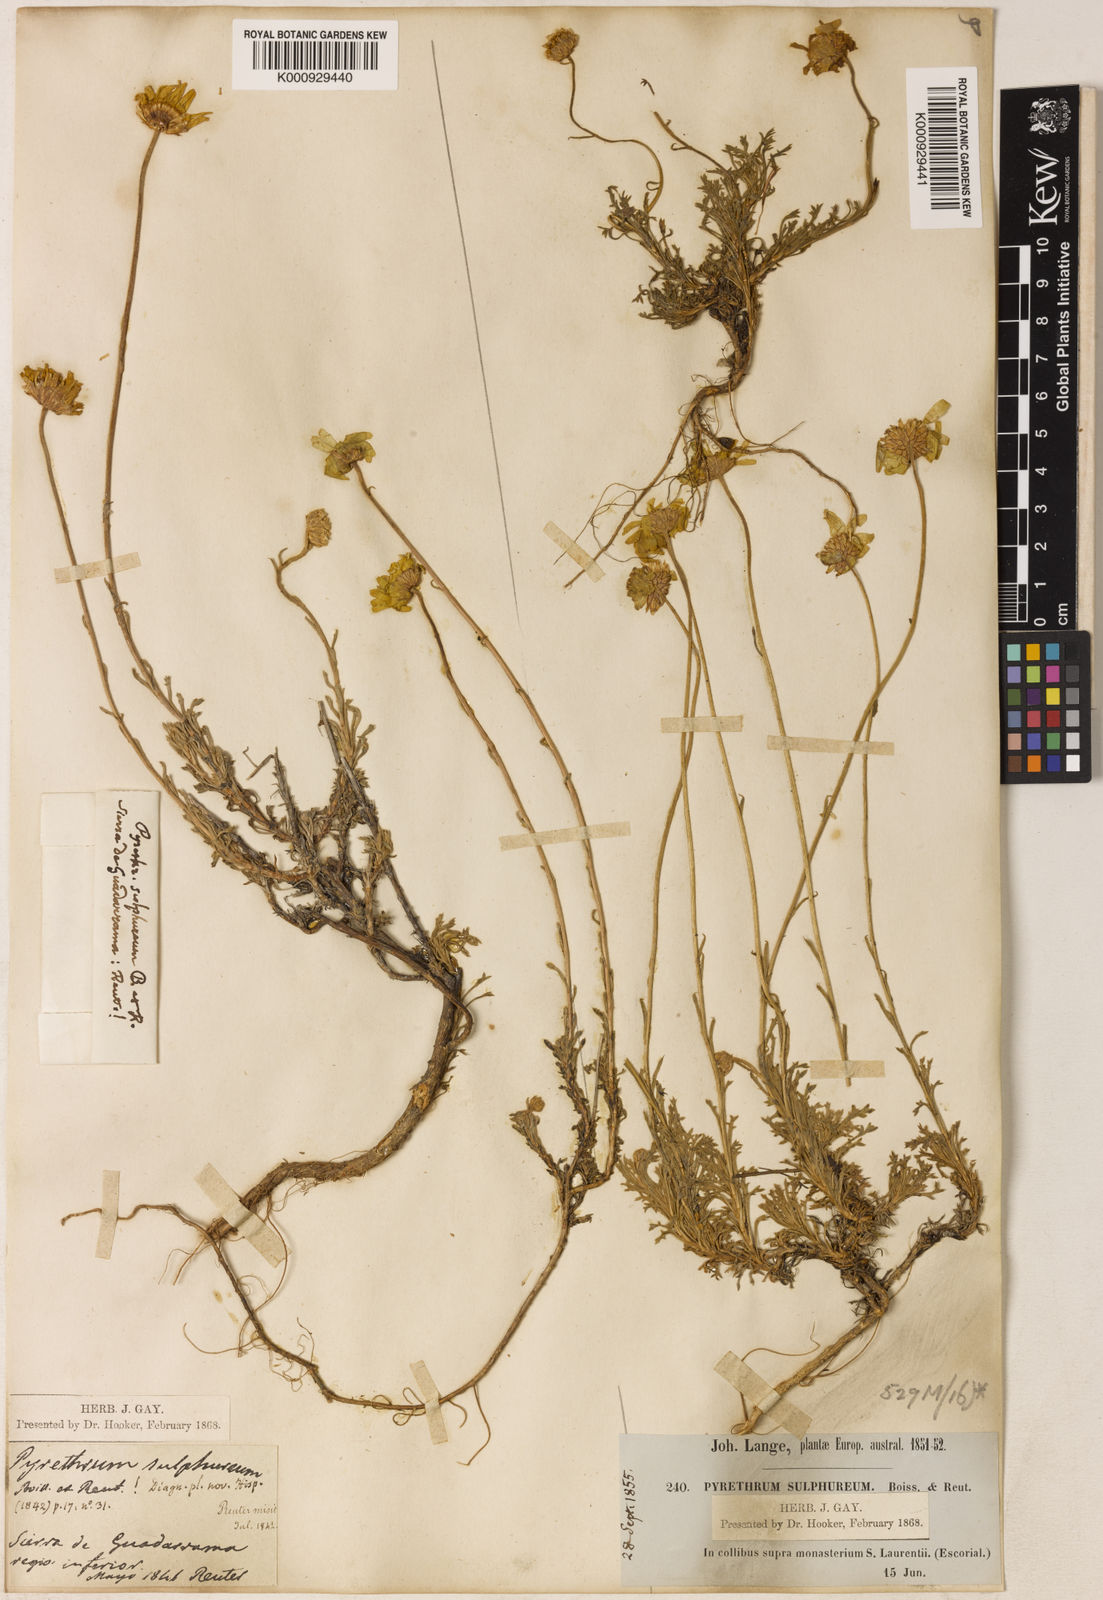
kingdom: Plantae
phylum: Tracheophyta
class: Magnoliopsida
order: Asterales
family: Asteraceae
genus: Leucanthemopsis
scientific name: Leucanthemopsis pulverulenta
